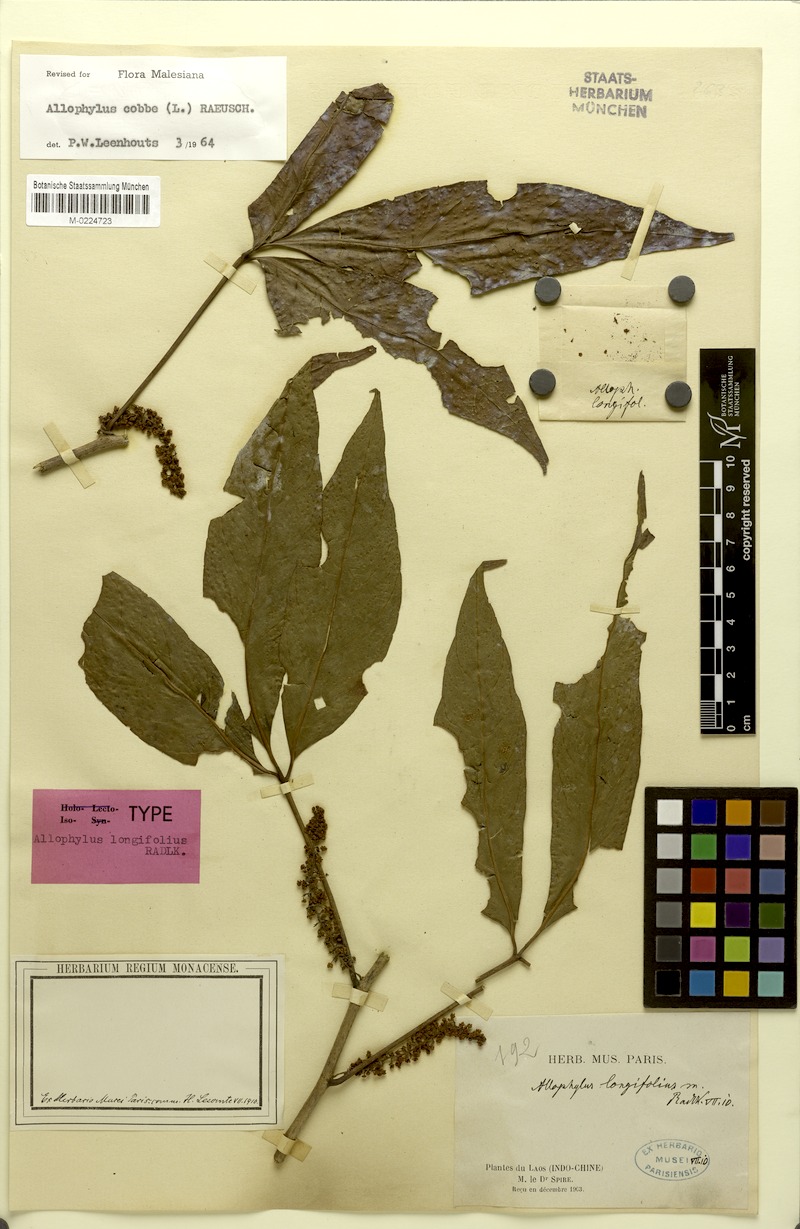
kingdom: Plantae
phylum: Tracheophyta
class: Magnoliopsida
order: Sapindales
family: Sapindaceae
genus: Allophylus
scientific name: Allophylus longifolius
